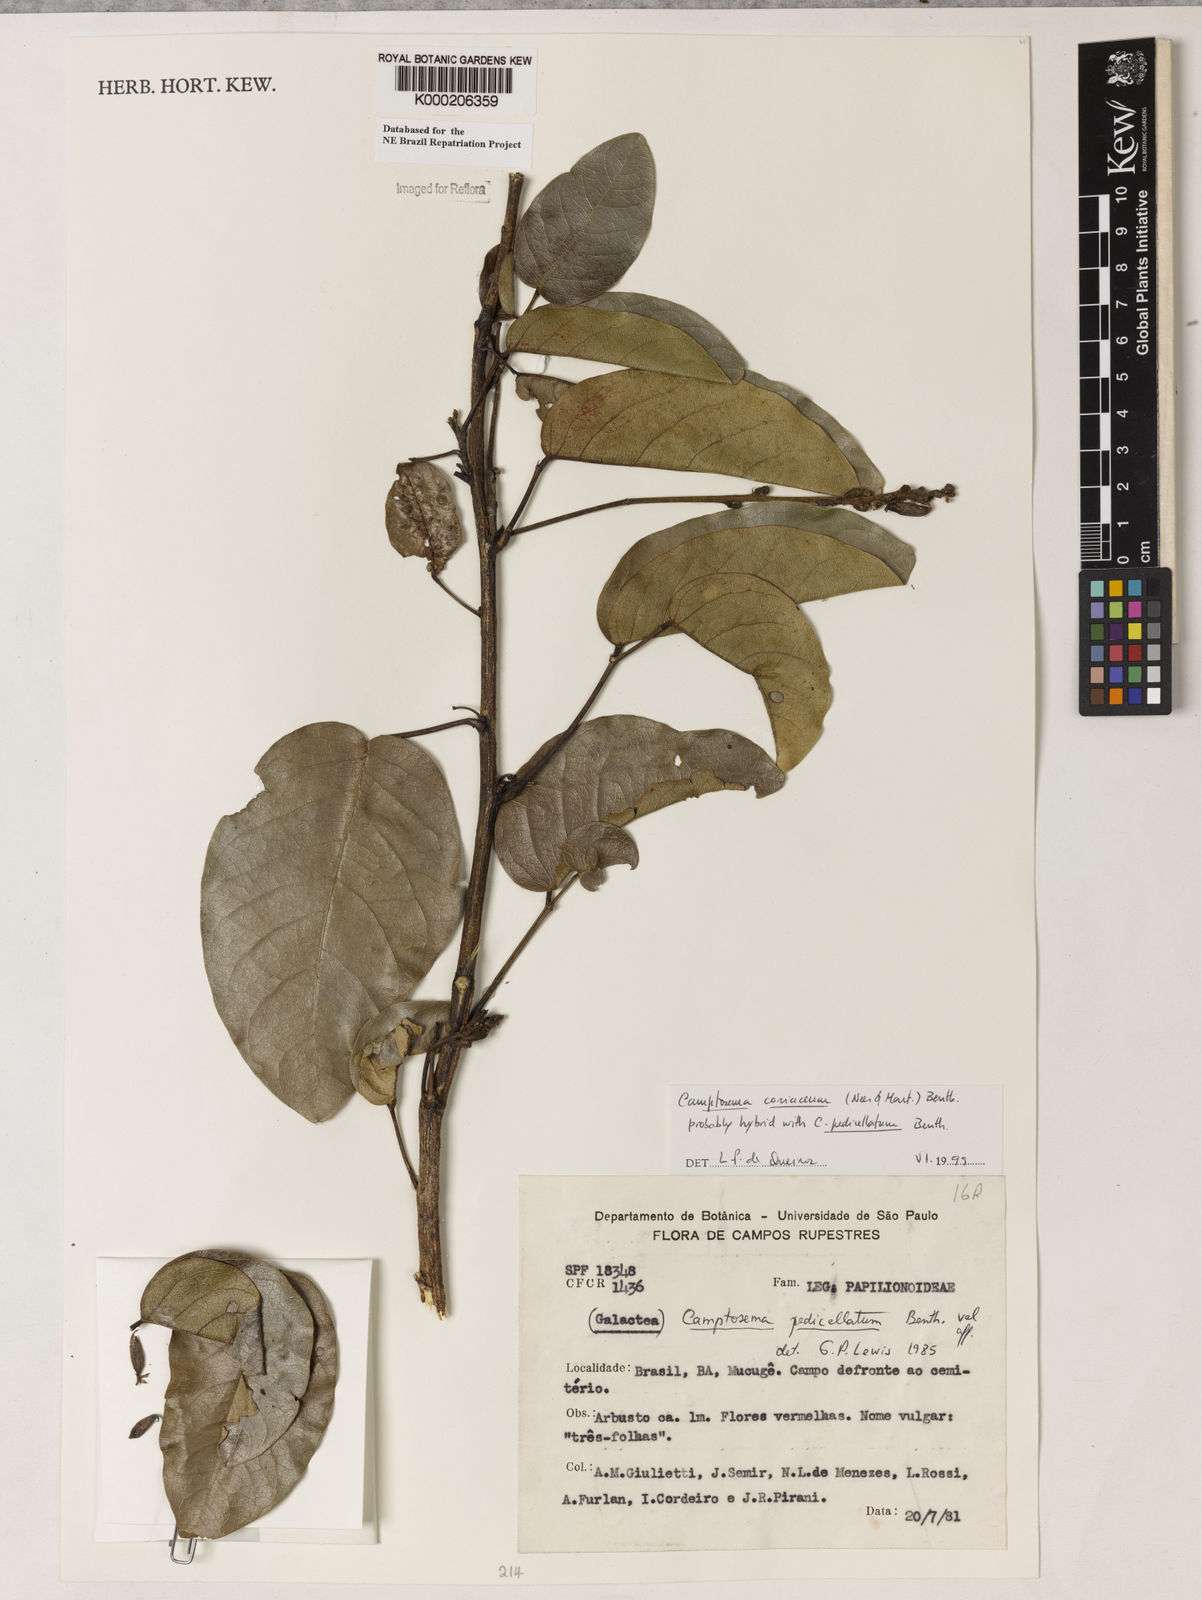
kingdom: Plantae
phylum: Tracheophyta
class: Magnoliopsida
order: Fabales
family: Fabaceae
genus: Camptosema
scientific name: Camptosema pedicellatum
